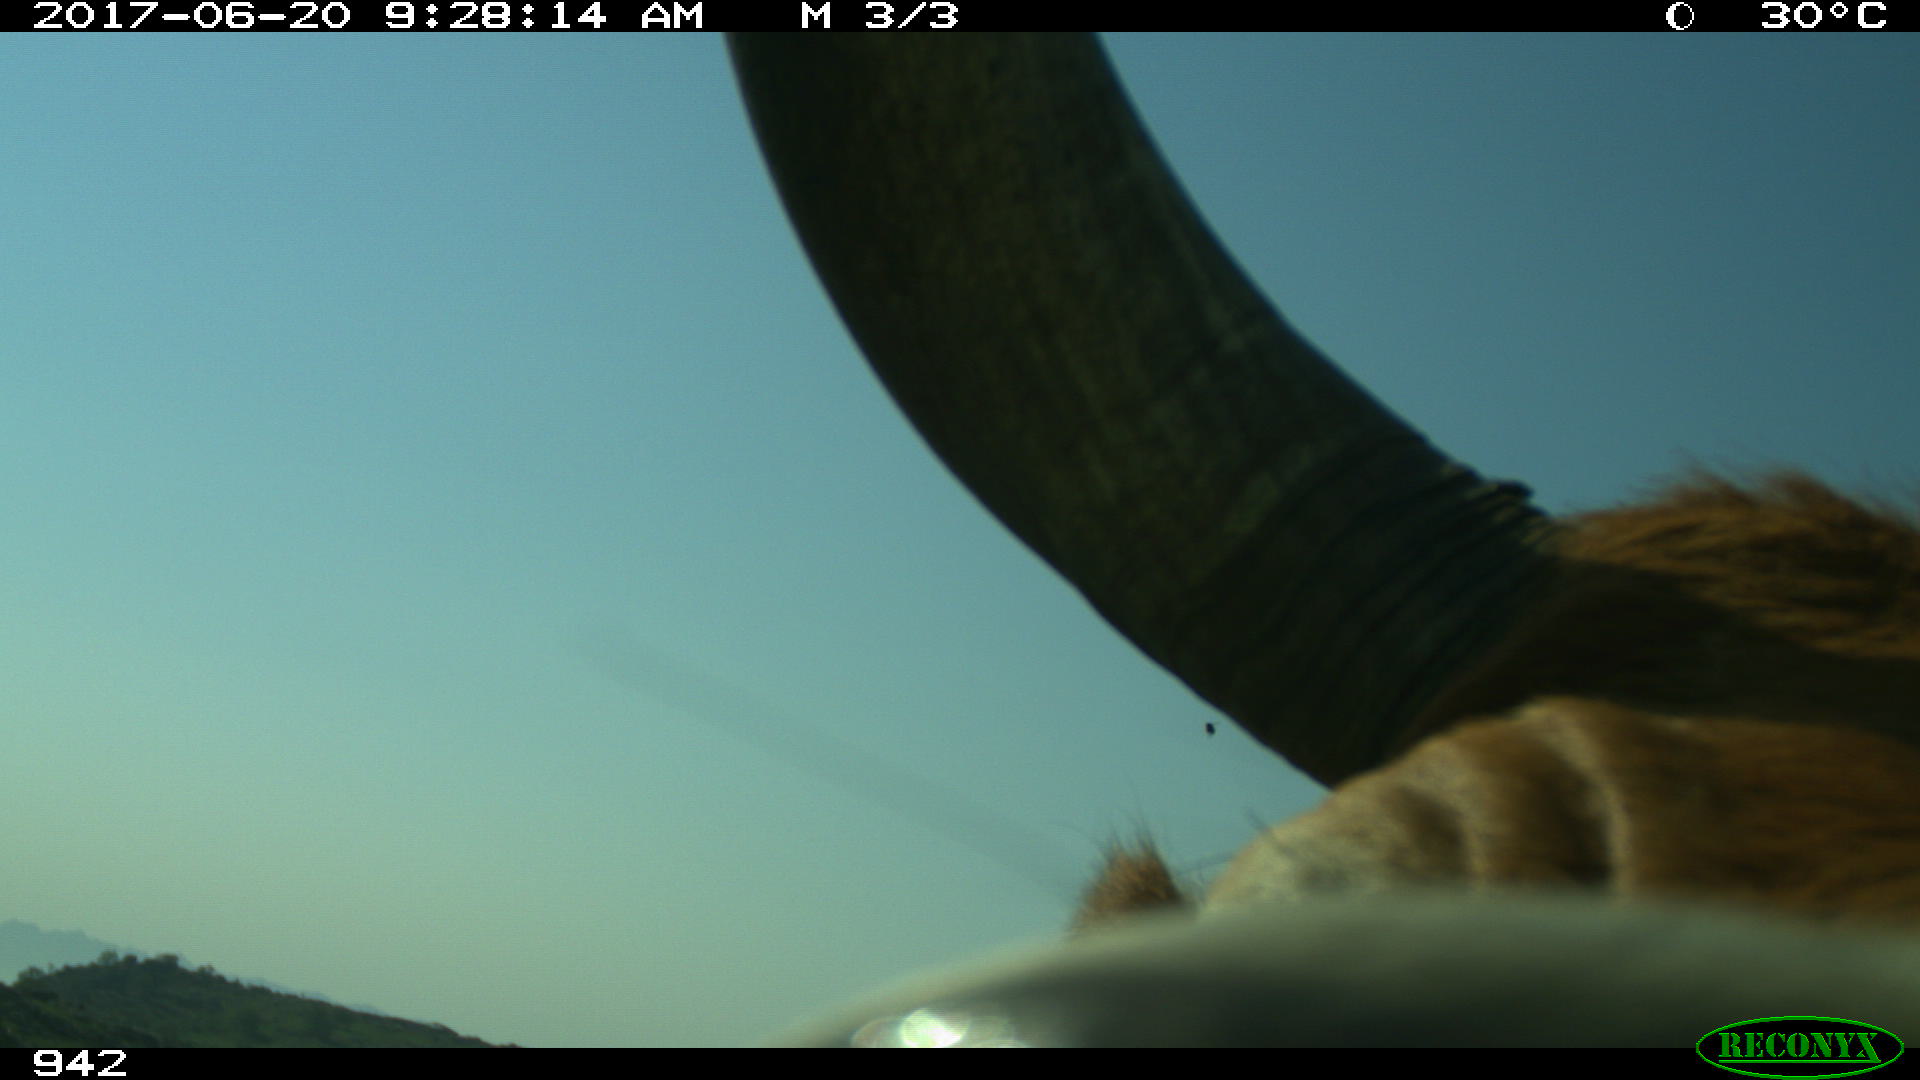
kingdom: Animalia
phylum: Chordata
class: Mammalia
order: Artiodactyla
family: Bovidae
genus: Bos
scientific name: Bos taurus
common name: Domesticated cattle
